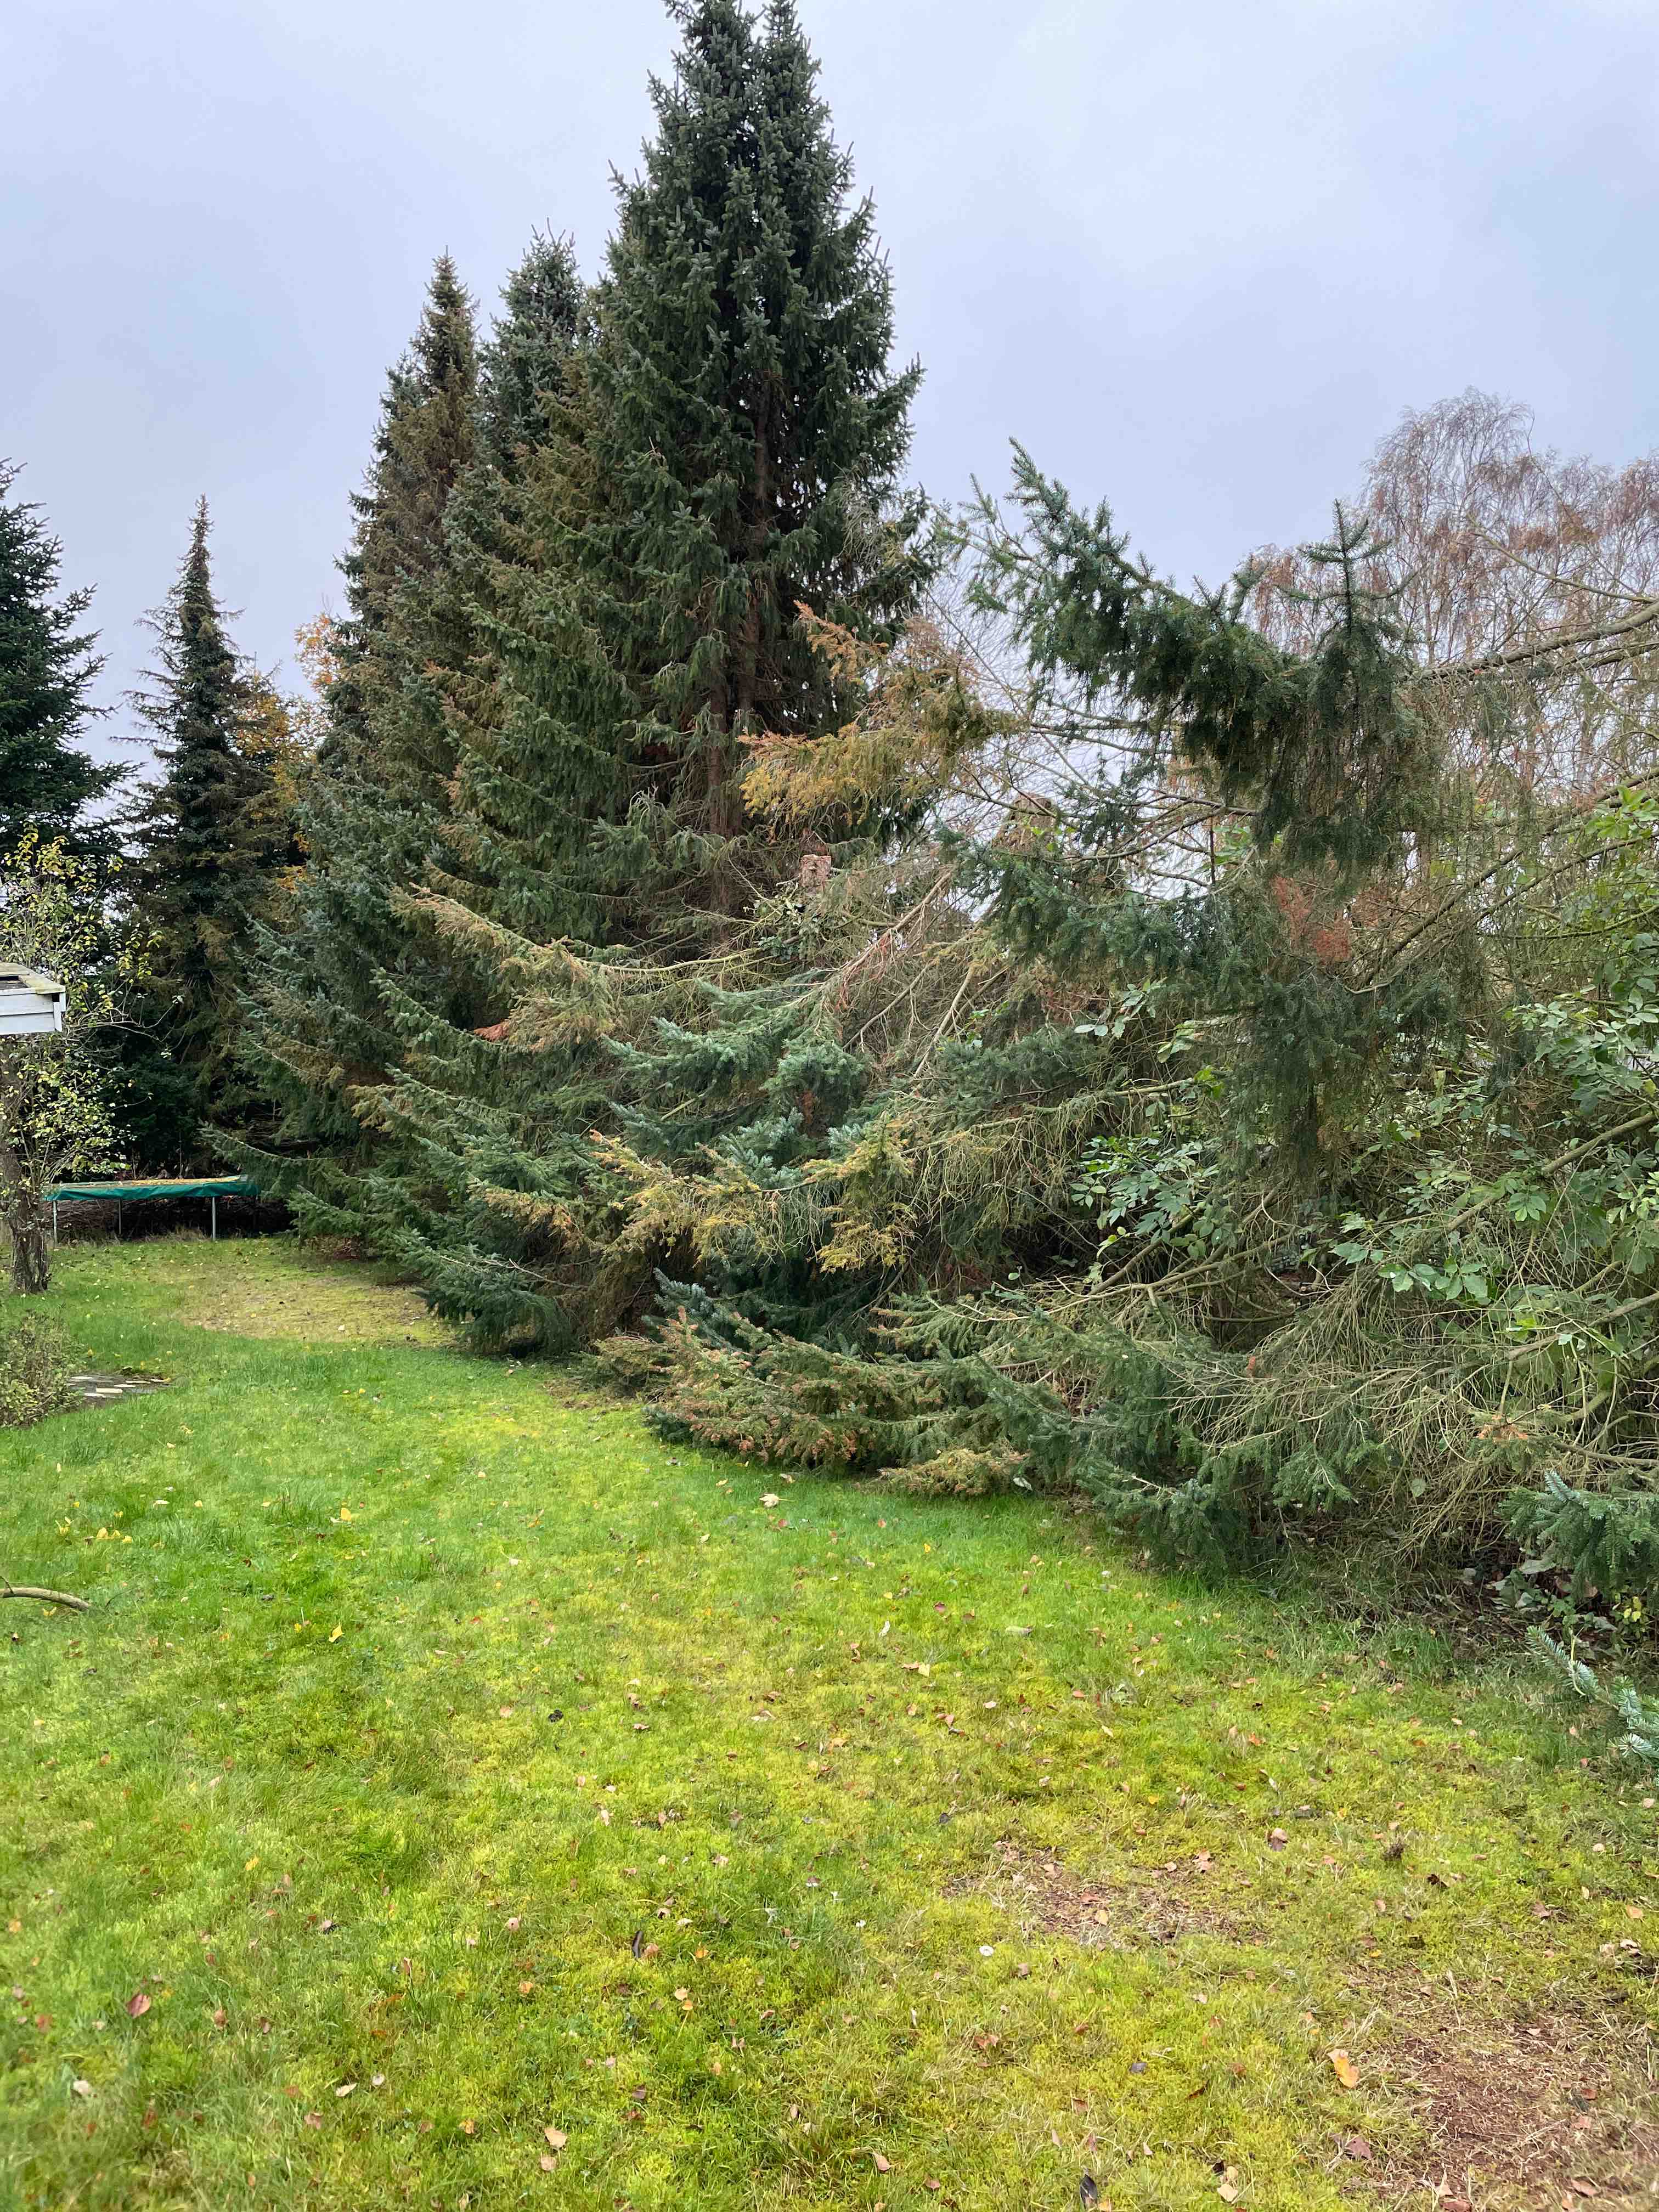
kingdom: Fungi
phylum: Basidiomycota
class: Agaricomycetes
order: Agaricales
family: Agaricaceae
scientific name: Agaricaceae
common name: champignonfamilien
